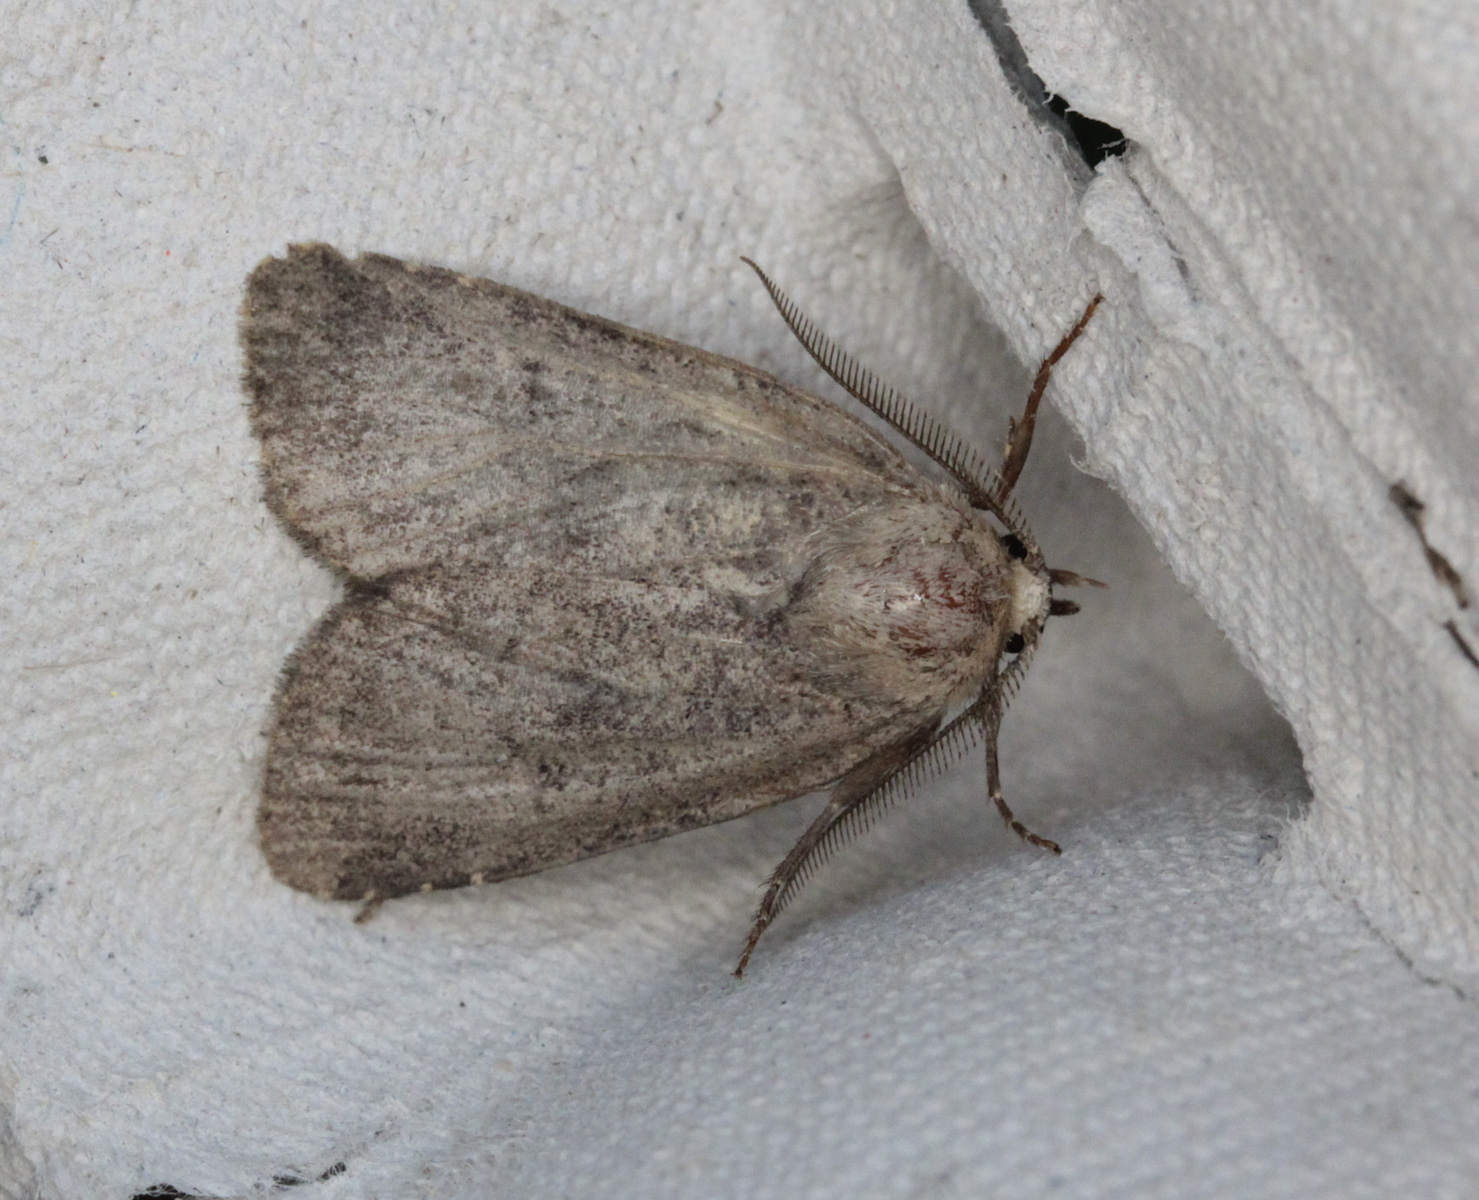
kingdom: Animalia
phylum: Arthropoda
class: Insecta
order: Lepidoptera
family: Noctuidae
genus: Charanyca
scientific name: Charanyca ferruginea
